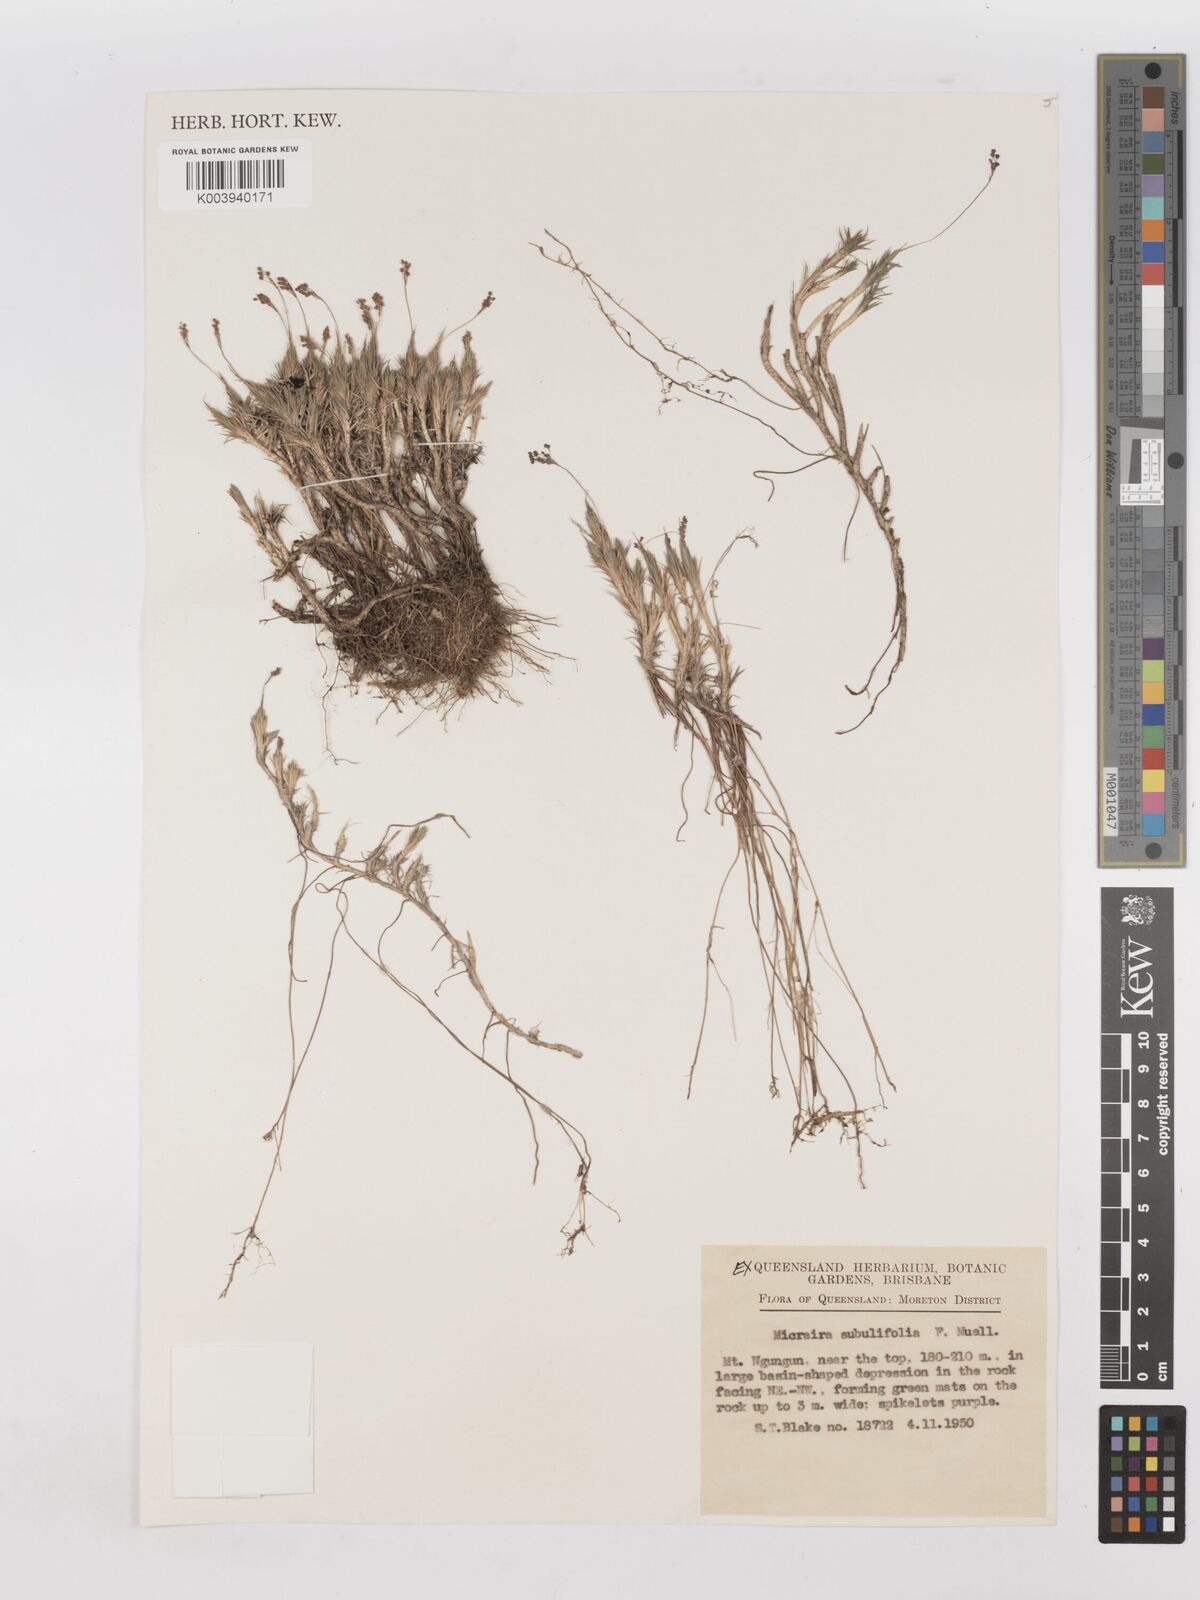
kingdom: Plantae
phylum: Tracheophyta
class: Liliopsida
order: Poales
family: Poaceae
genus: Micraira
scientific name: Micraira subulifolia
